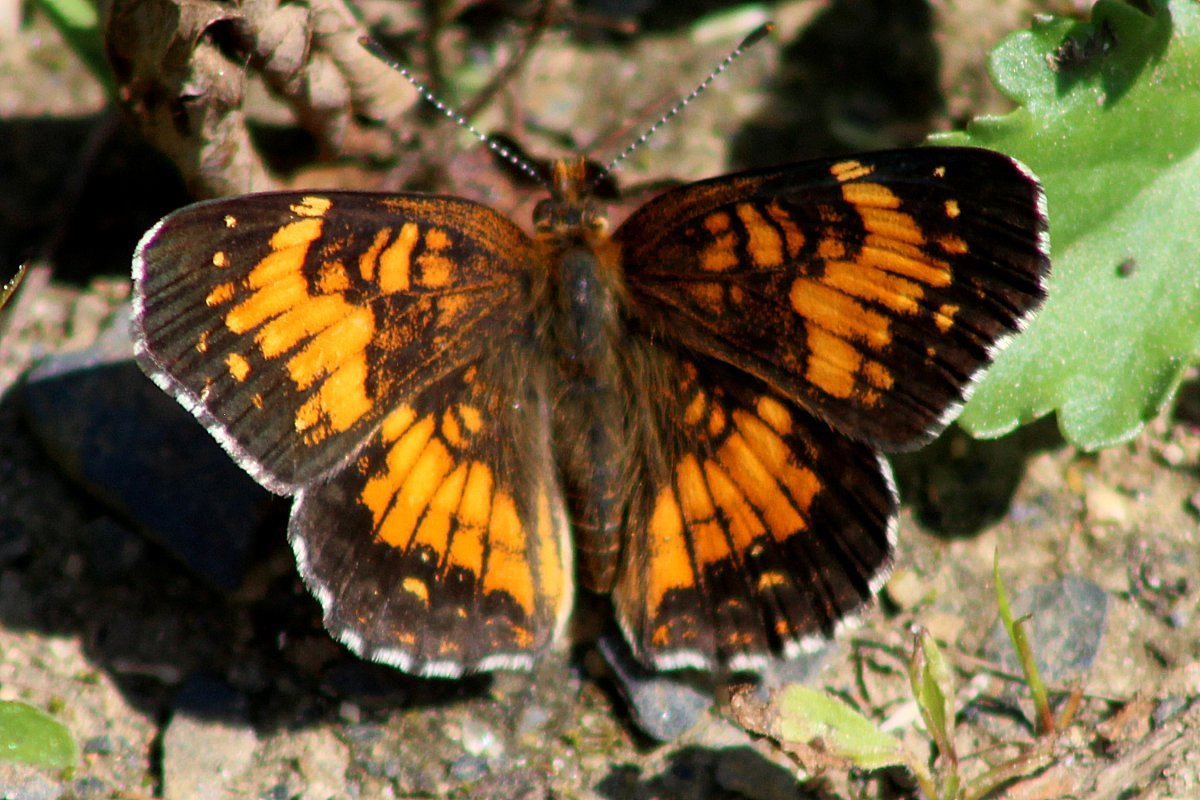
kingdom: Animalia
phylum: Arthropoda
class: Insecta
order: Lepidoptera
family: Nymphalidae
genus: Chlosyne
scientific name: Chlosyne harrisii
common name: Harris's Checkerspot
